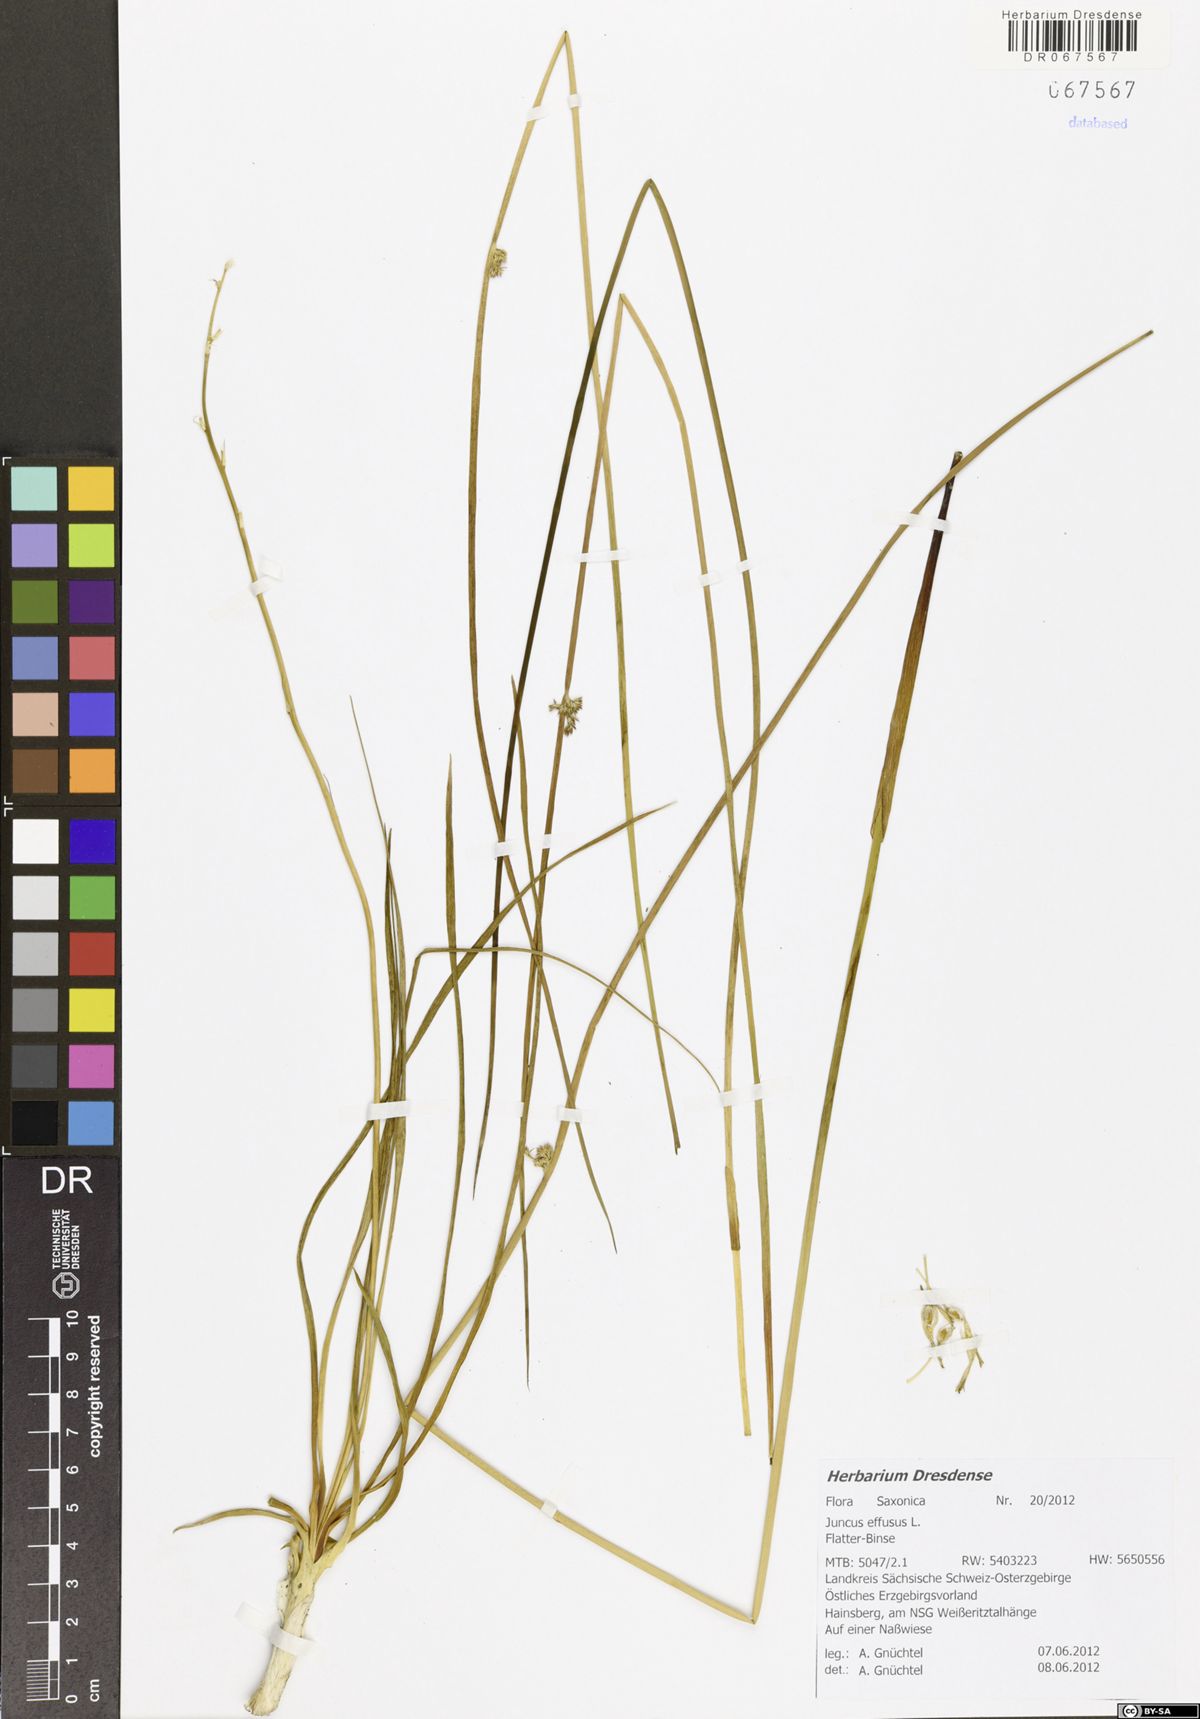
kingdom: Plantae
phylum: Tracheophyta
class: Liliopsida
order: Poales
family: Juncaceae
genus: Juncus
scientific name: Juncus effusus
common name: Soft rush
